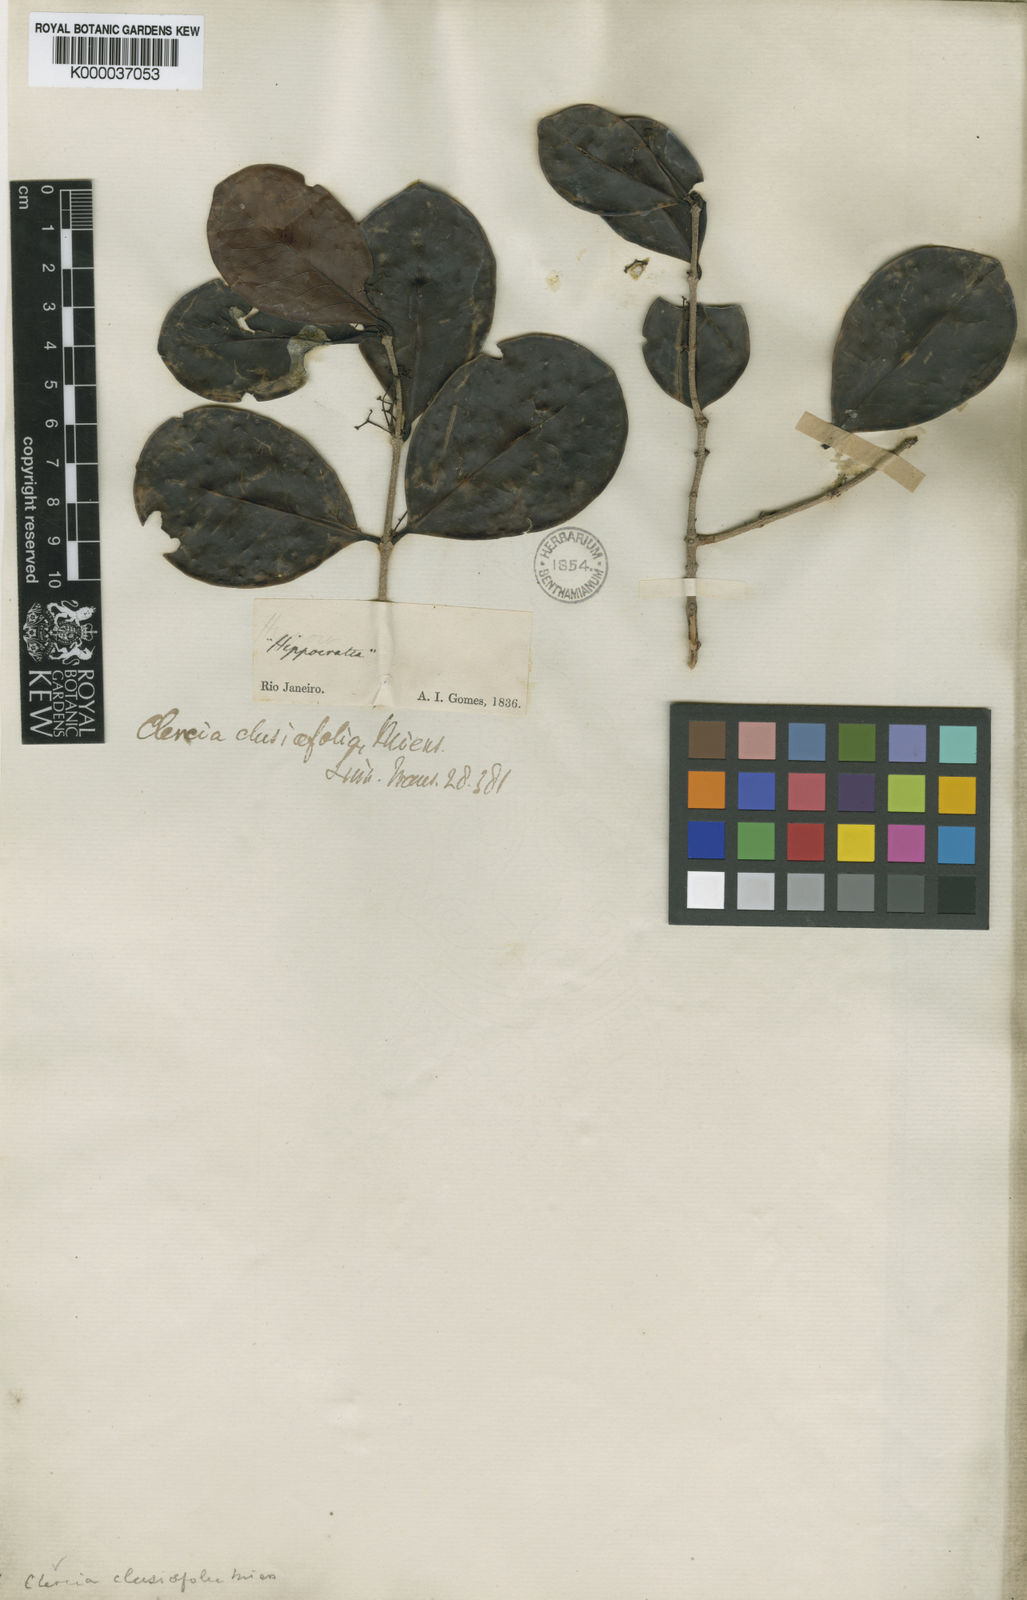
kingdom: Plantae
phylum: Tracheophyta
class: Magnoliopsida
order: Celastrales
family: Celastraceae
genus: Peritassa
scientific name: Peritassa calypsoides
